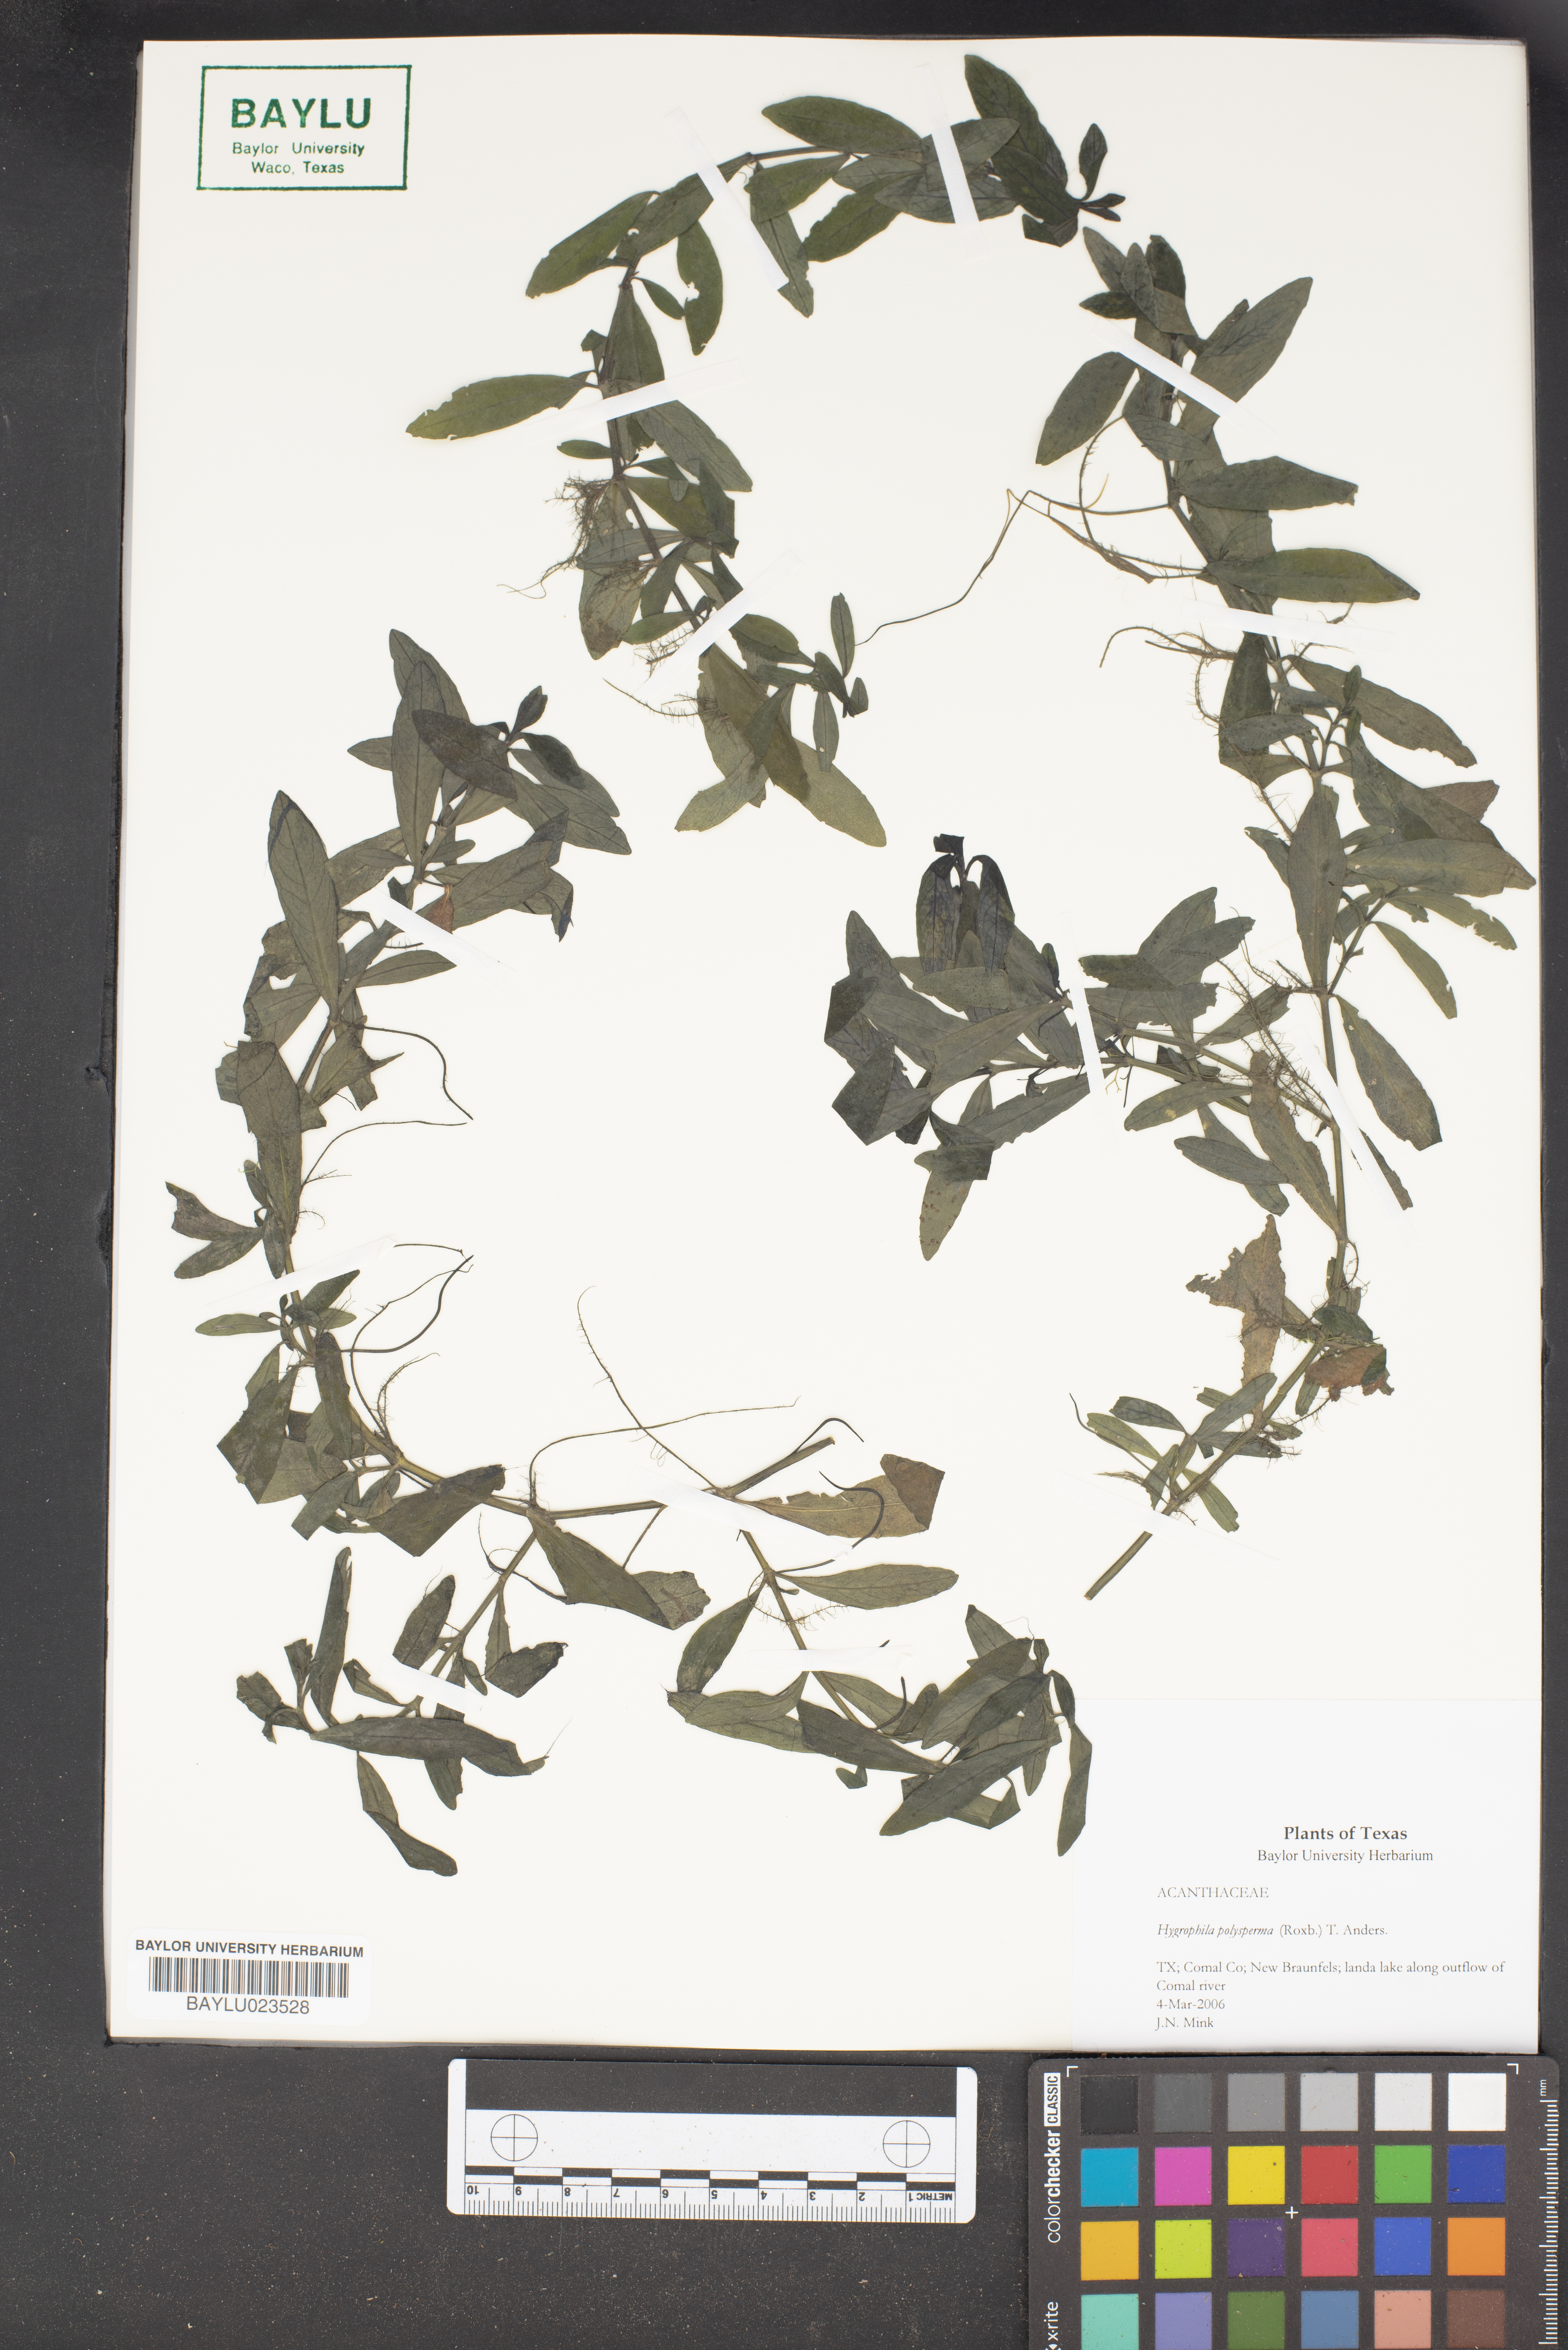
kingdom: Plantae
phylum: Tracheophyta
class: Magnoliopsida
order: Lamiales
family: Acanthaceae
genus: Hygrophila
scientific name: Hygrophila polysperma
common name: Indian swampweed
